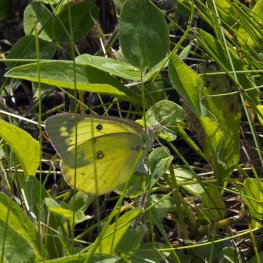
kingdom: Animalia
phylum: Arthropoda
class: Insecta
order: Lepidoptera
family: Pieridae
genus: Colias
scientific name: Colias philodice
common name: Clouded Sulphur
